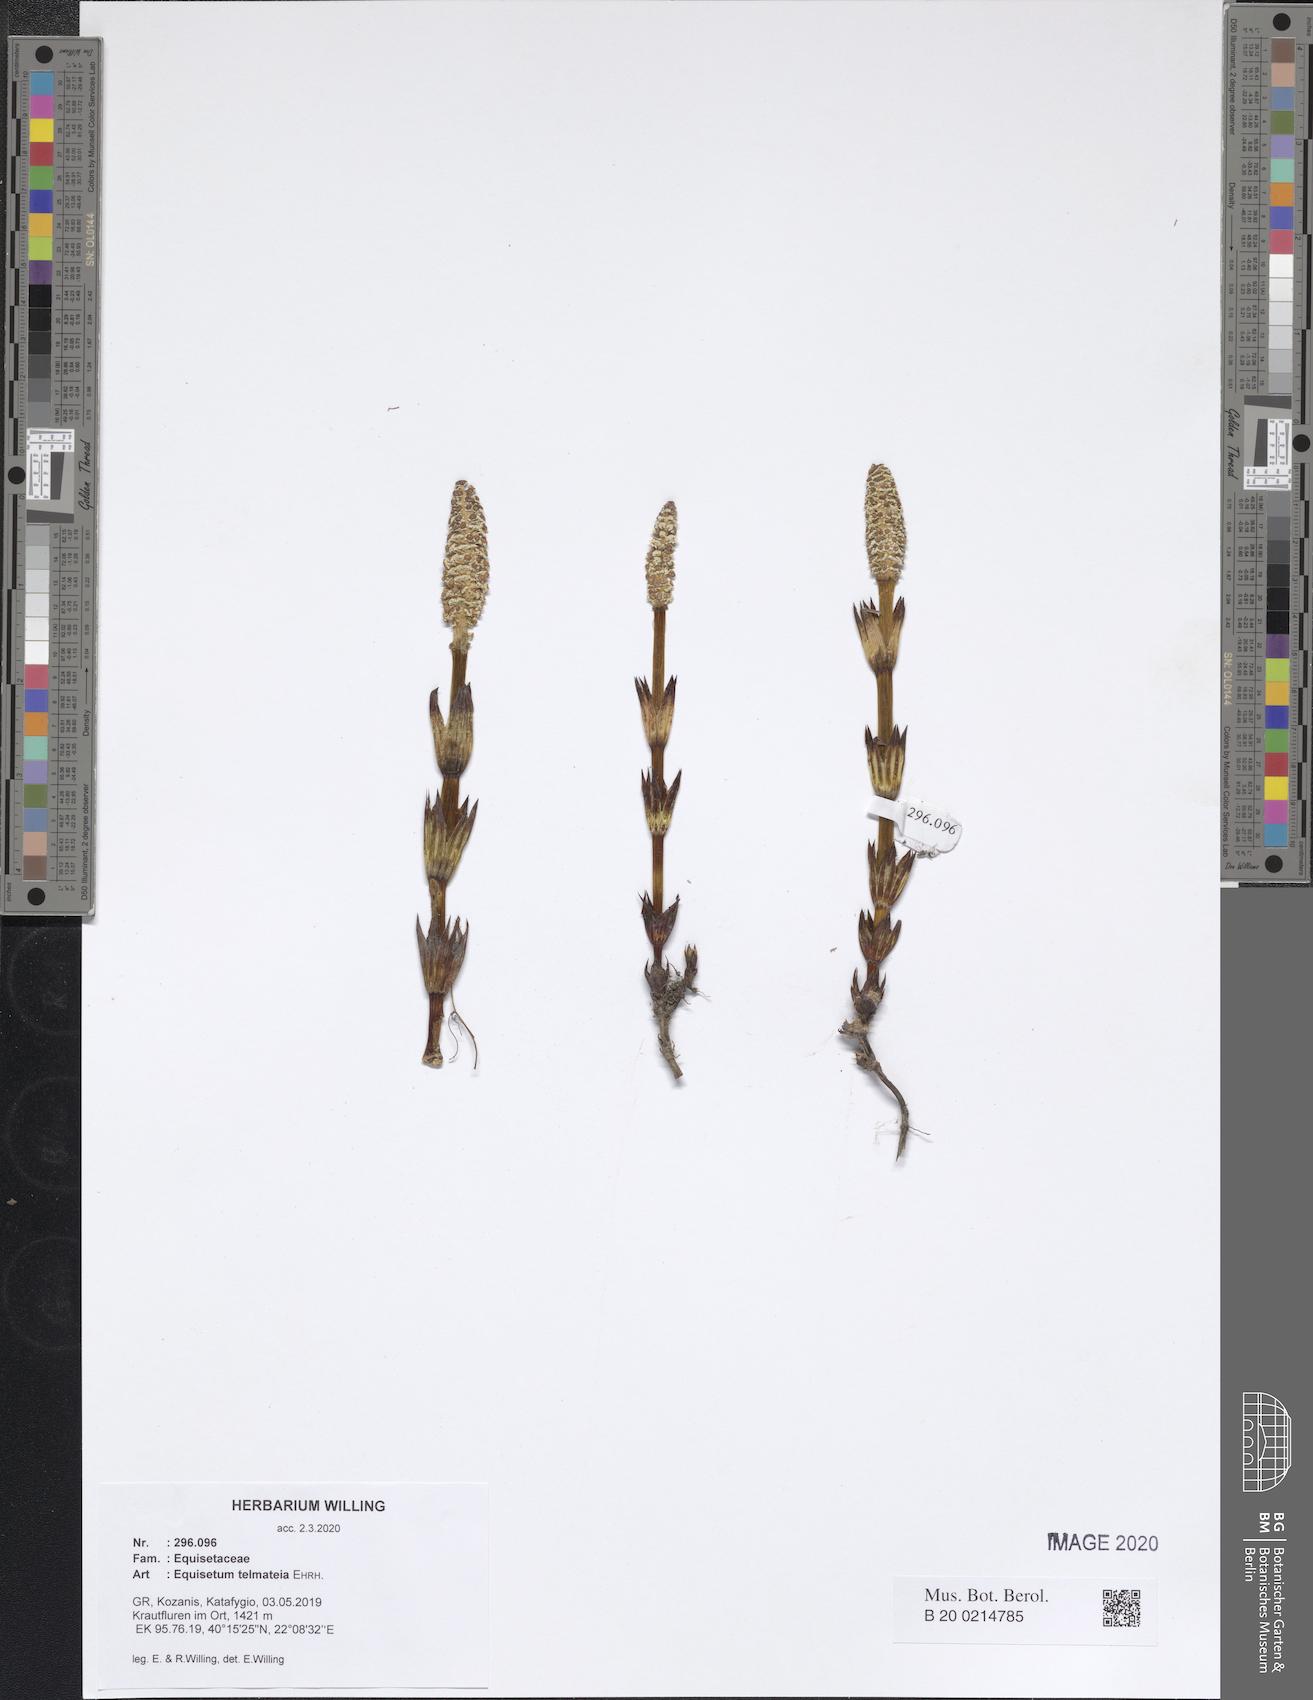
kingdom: Plantae
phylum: Tracheophyta
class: Polypodiopsida
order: Equisetales
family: Equisetaceae
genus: Equisetum
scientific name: Equisetum telmateia
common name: Great horsetail
